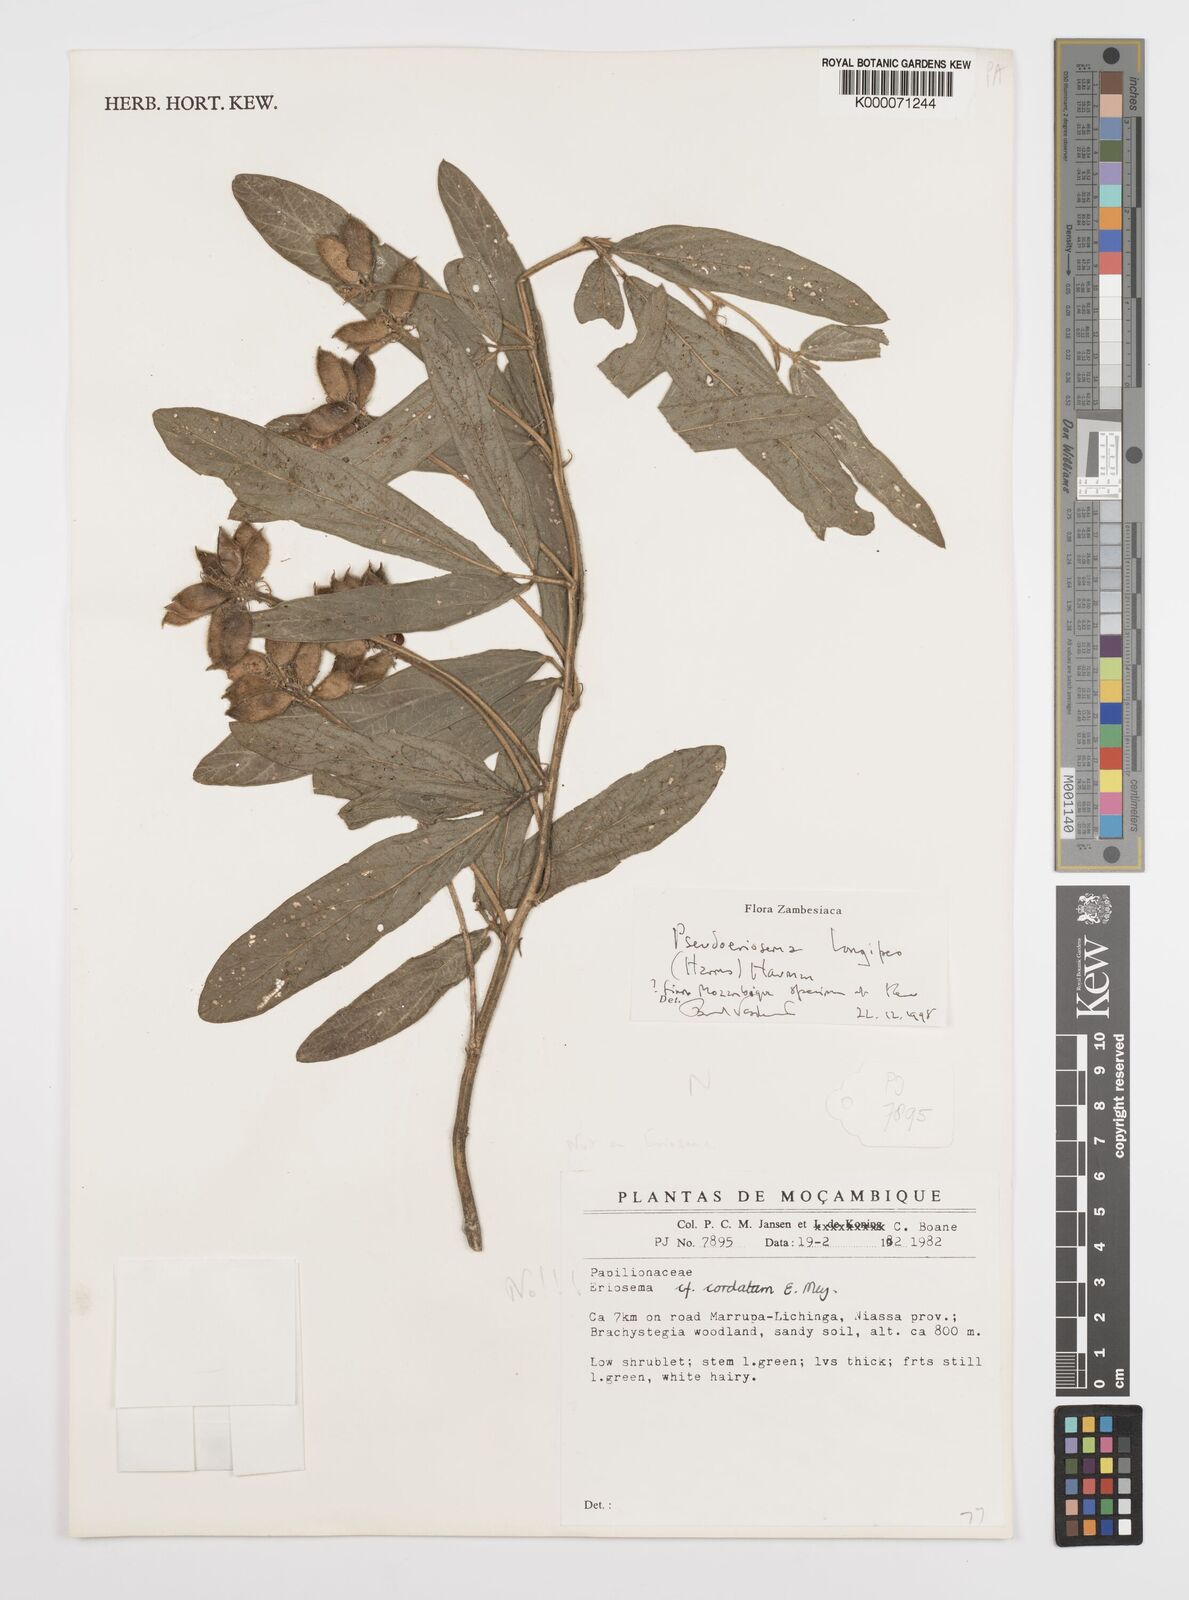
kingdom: Plantae
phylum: Tracheophyta
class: Magnoliopsida
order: Fabales
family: Fabaceae
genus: Pseudoeriosema
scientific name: Pseudoeriosema longipes
